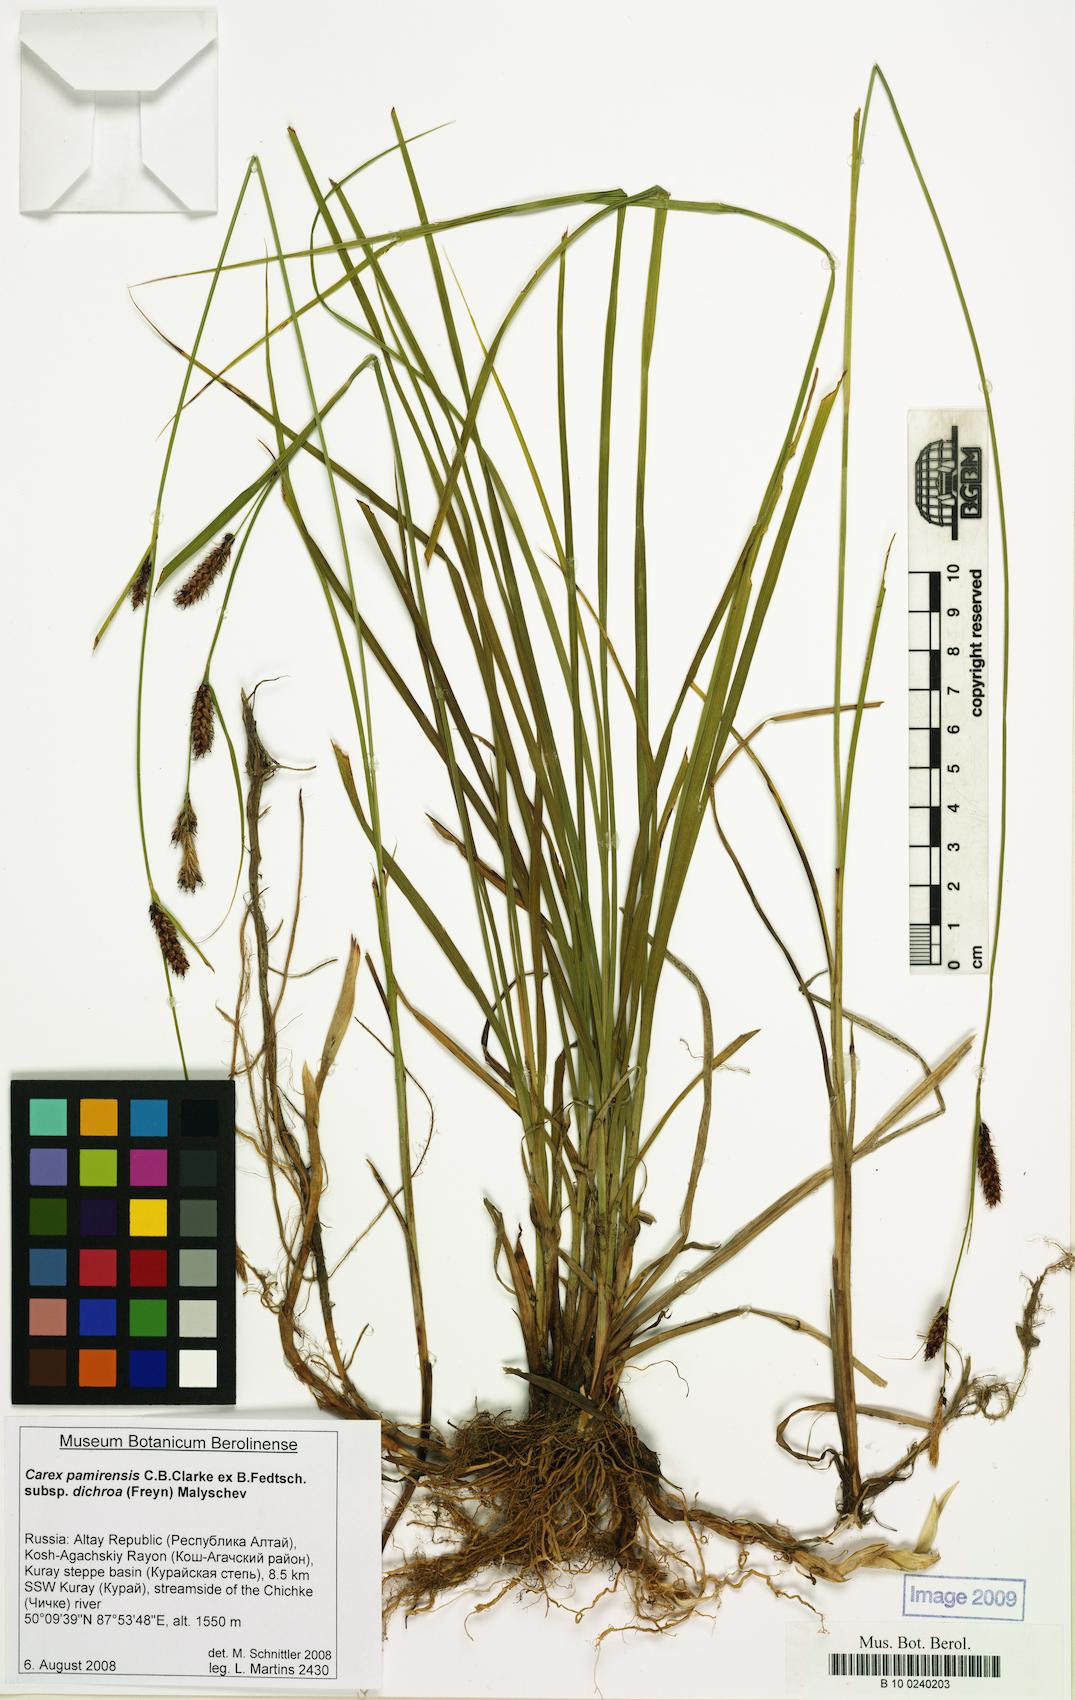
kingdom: Plantae
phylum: Tracheophyta
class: Liliopsida
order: Poales
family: Cyperaceae
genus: Carex
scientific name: Carex pamirensis
